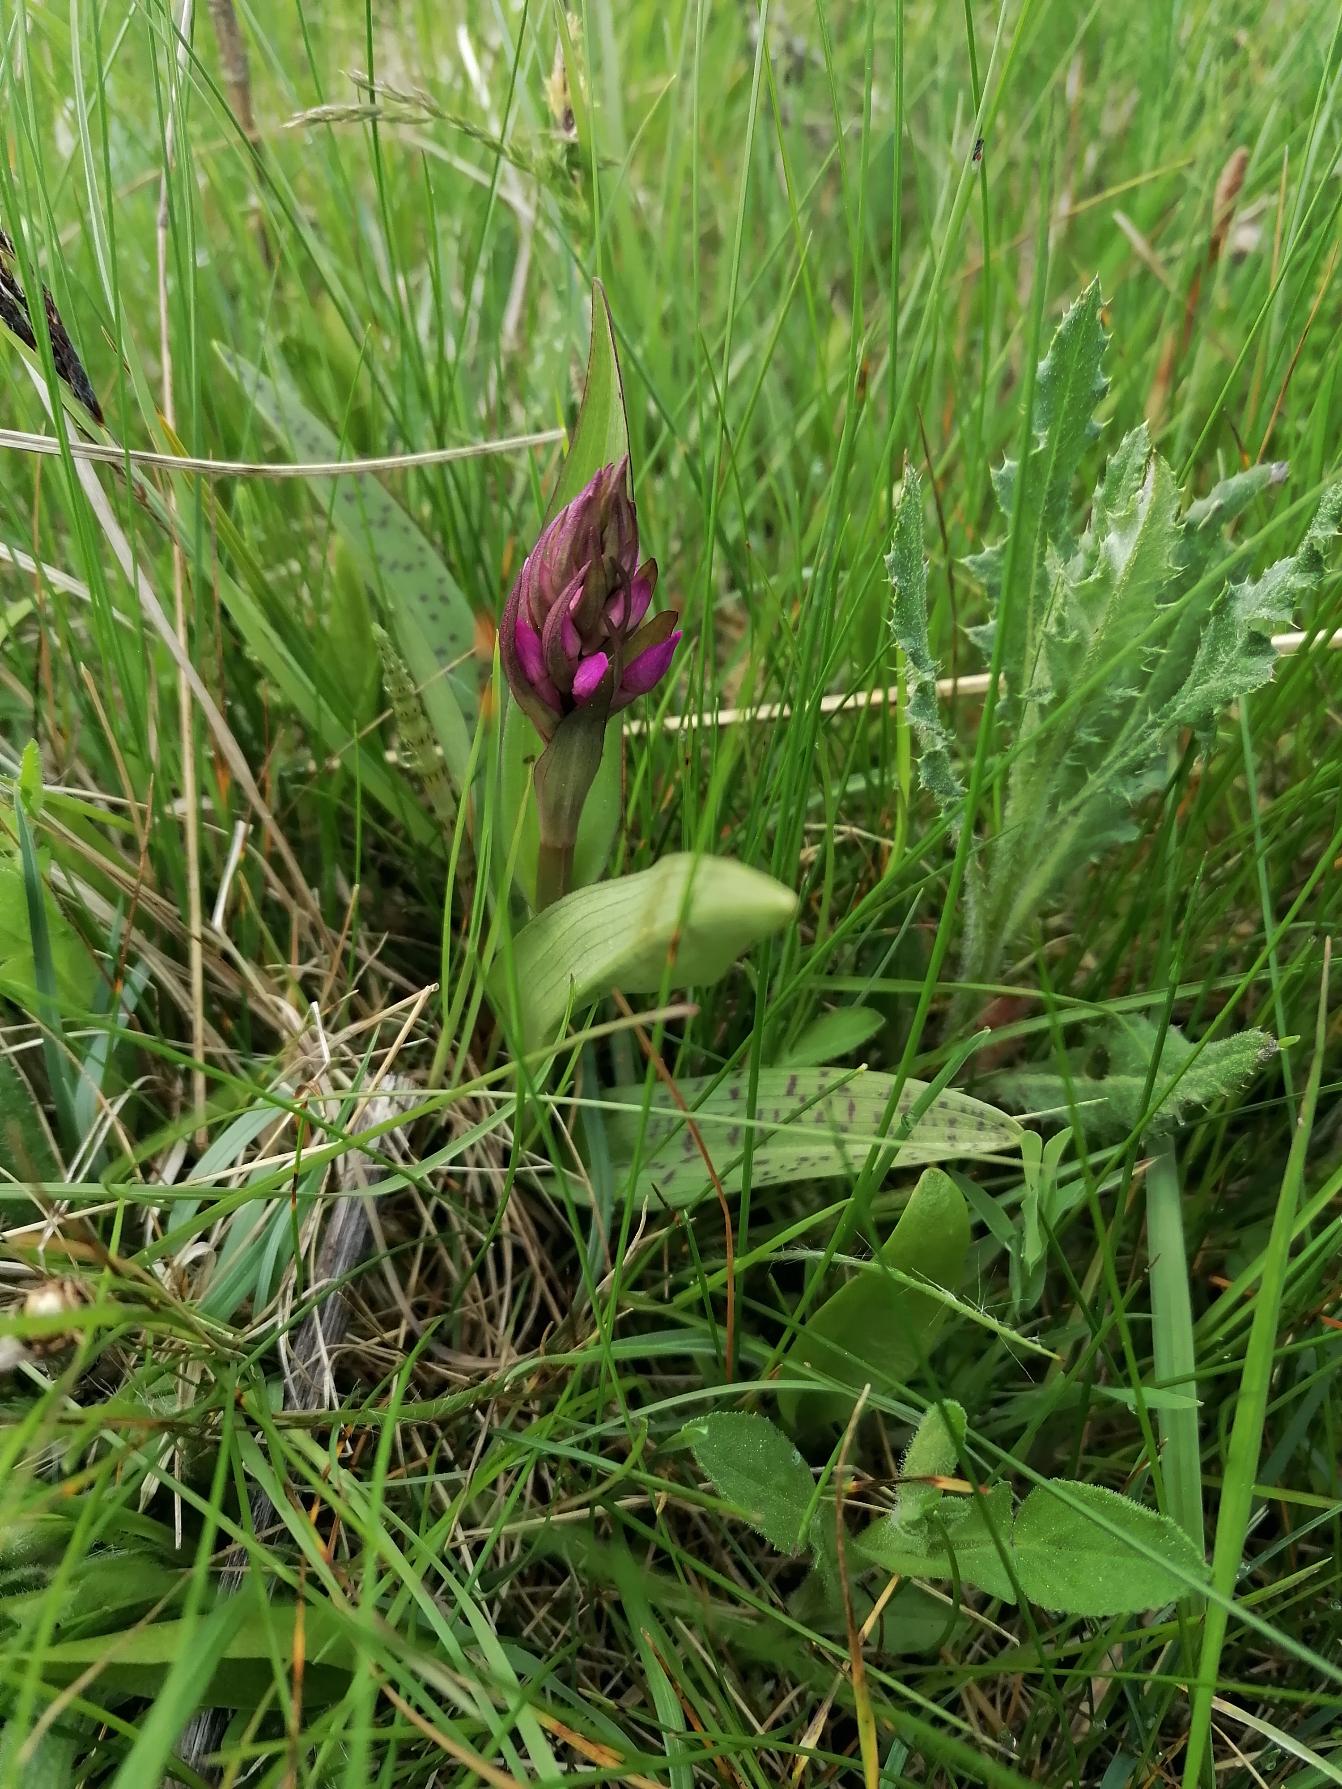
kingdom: Plantae
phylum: Tracheophyta
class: Liliopsida
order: Asparagales
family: Orchidaceae
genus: Dactylorhiza
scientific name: Dactylorhiza majalis
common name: Maj-gøgeurt
